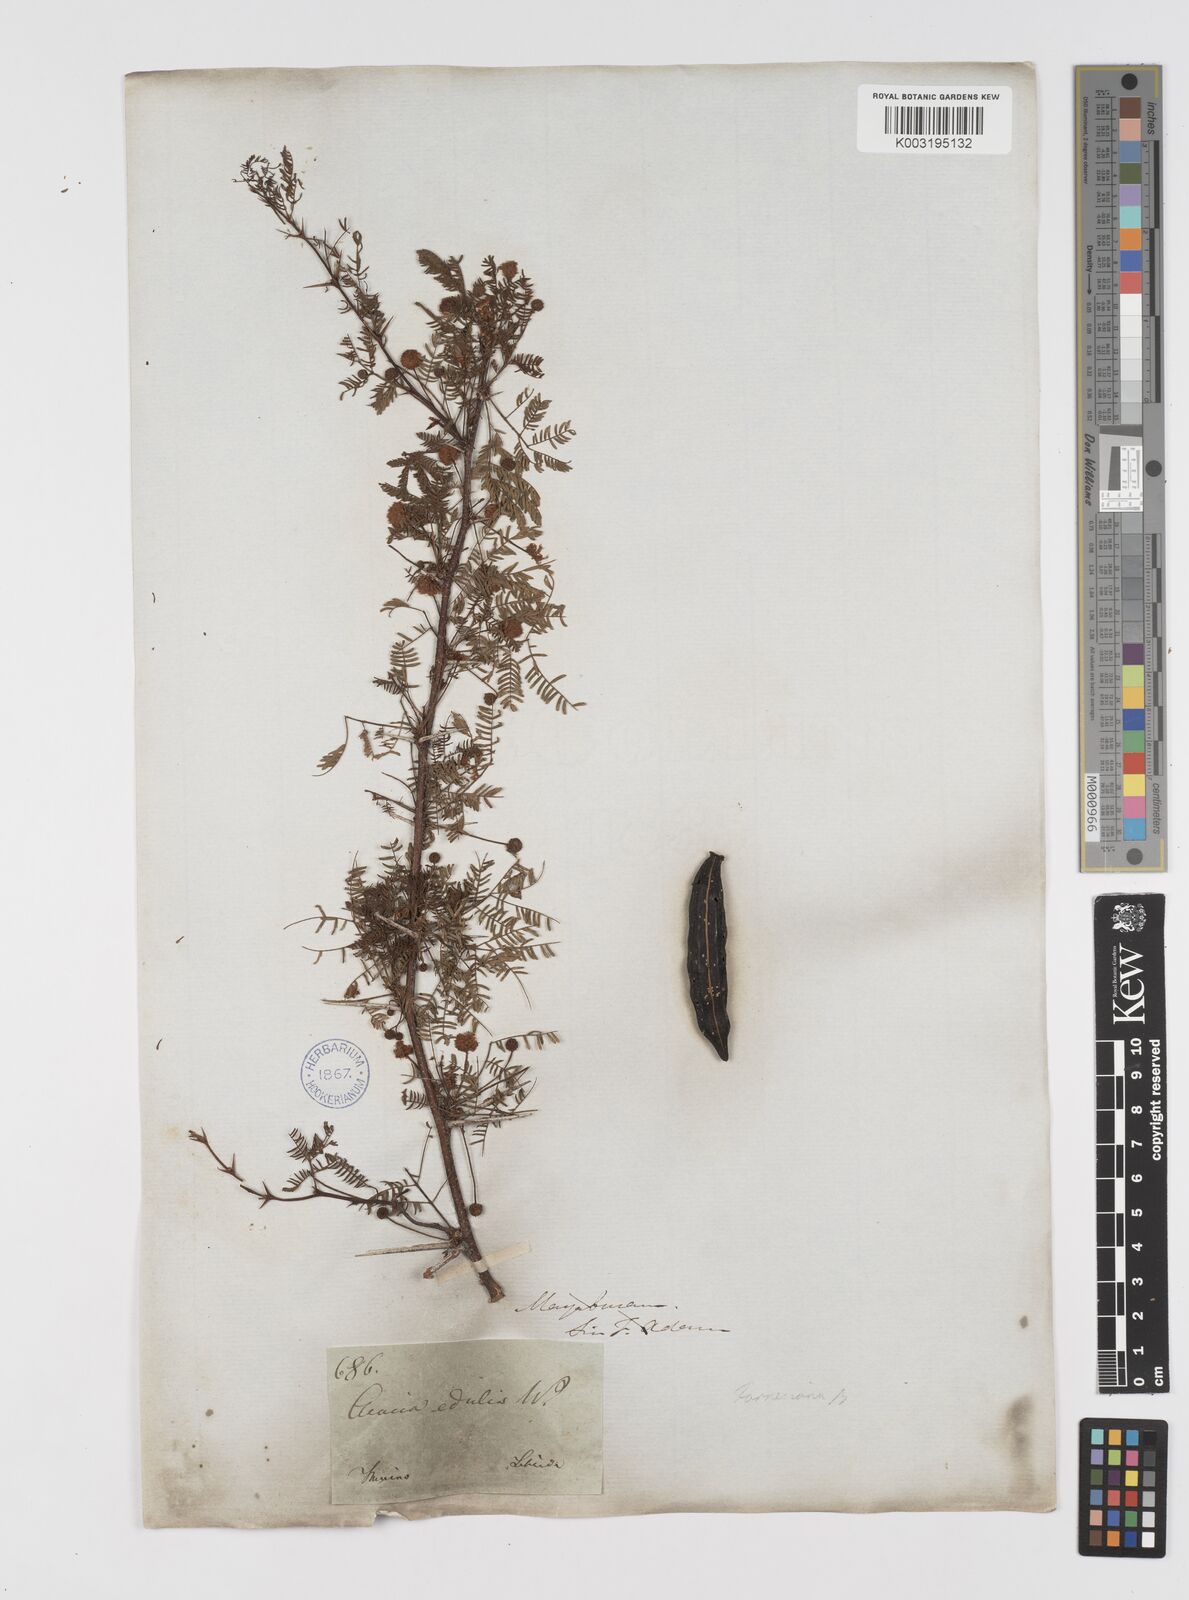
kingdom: Plantae
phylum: Tracheophyta
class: Magnoliopsida
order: Fabales
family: Fabaceae
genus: Vachellia
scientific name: Vachellia farnesiana
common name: Sweet acacia
